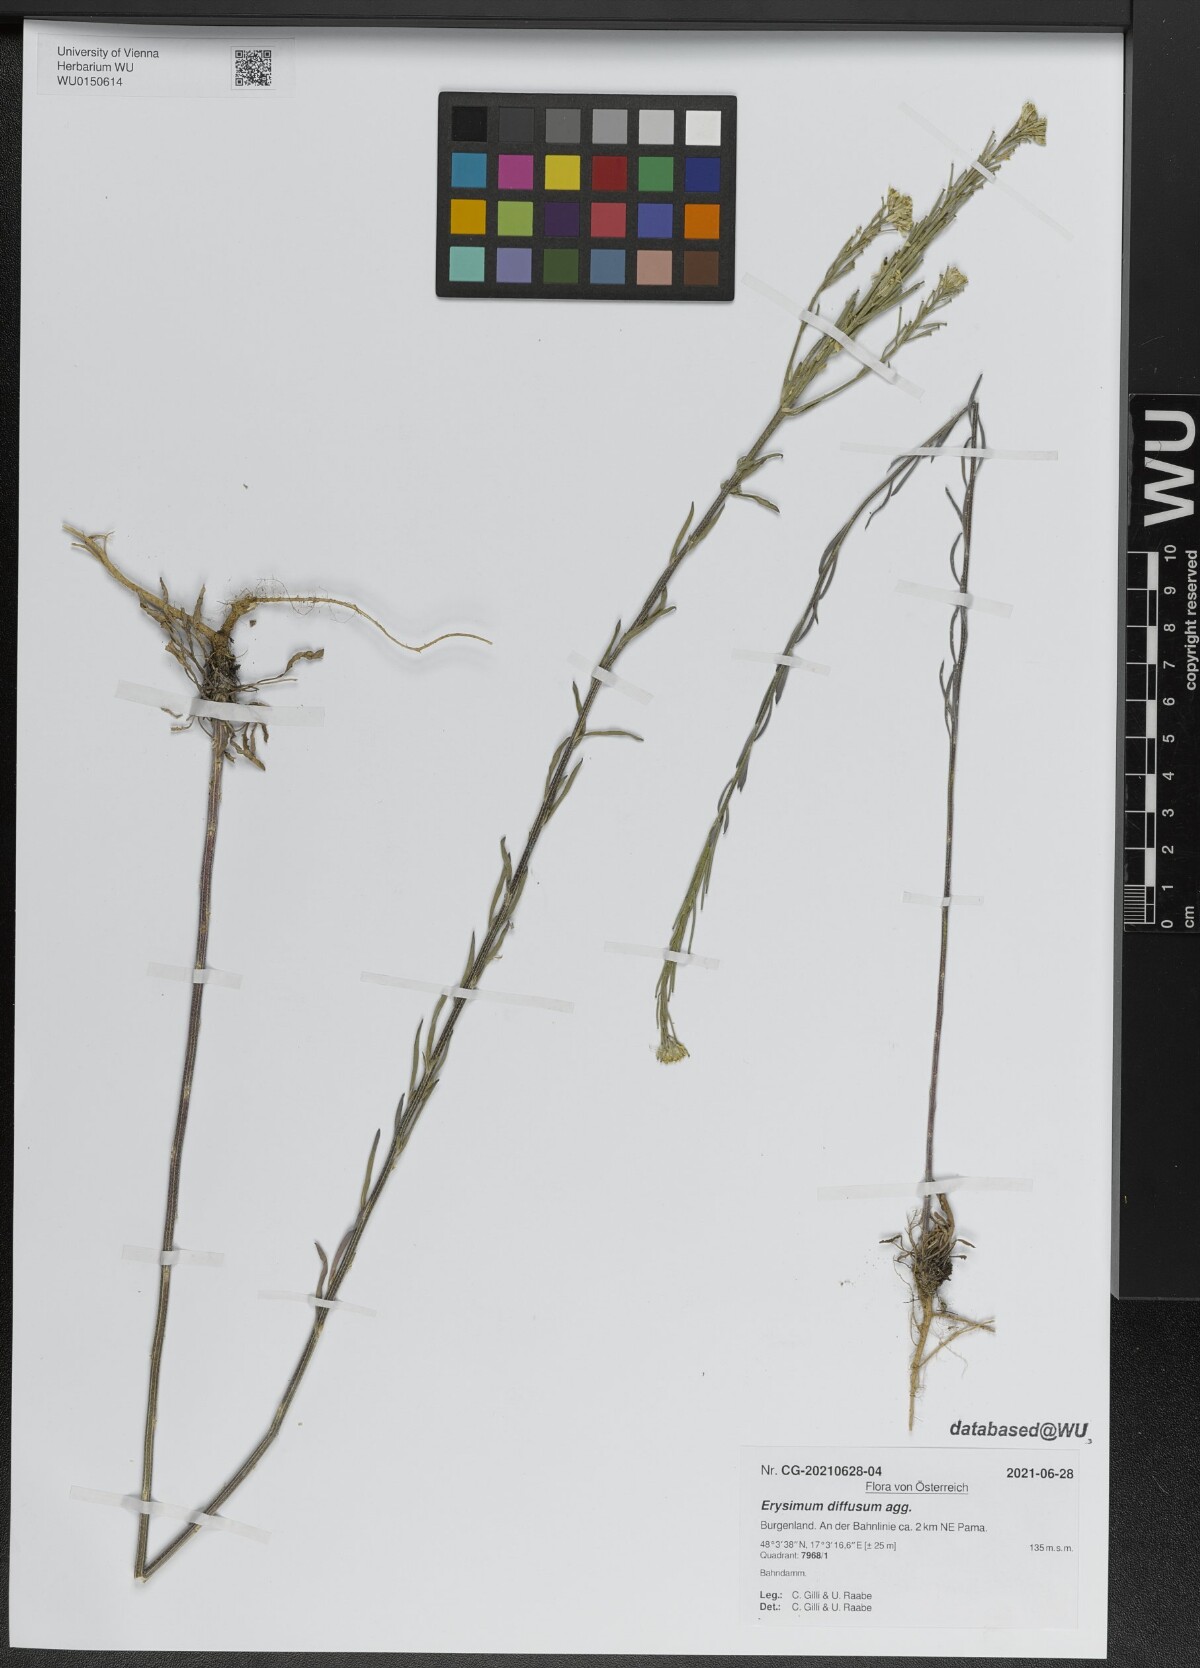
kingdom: Plantae
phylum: Tracheophyta
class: Magnoliopsida
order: Brassicales
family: Brassicaceae
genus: Erysimum
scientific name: Erysimum diffusum
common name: Diffuse wallflower
